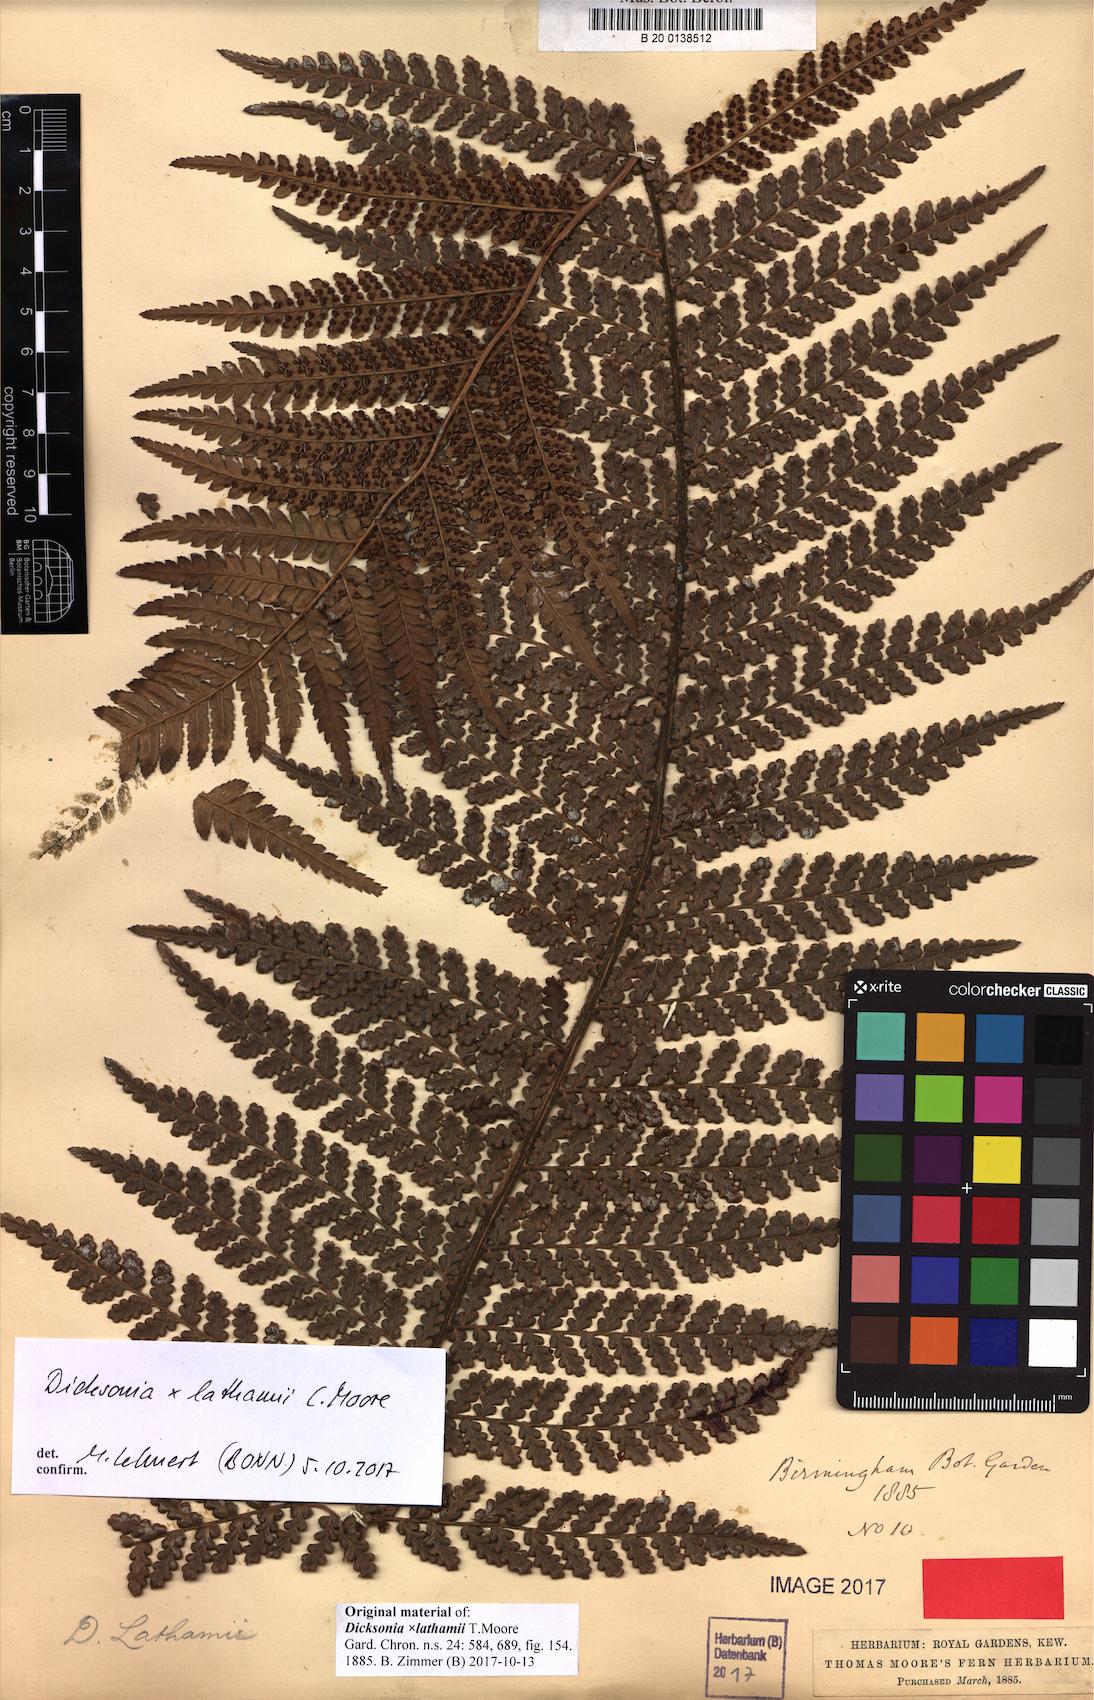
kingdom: Plantae
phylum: Tracheophyta
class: Polypodiopsida
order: Cyatheales
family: Dicksoniaceae
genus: Dicksonia
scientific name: Dicksonia lathamii
